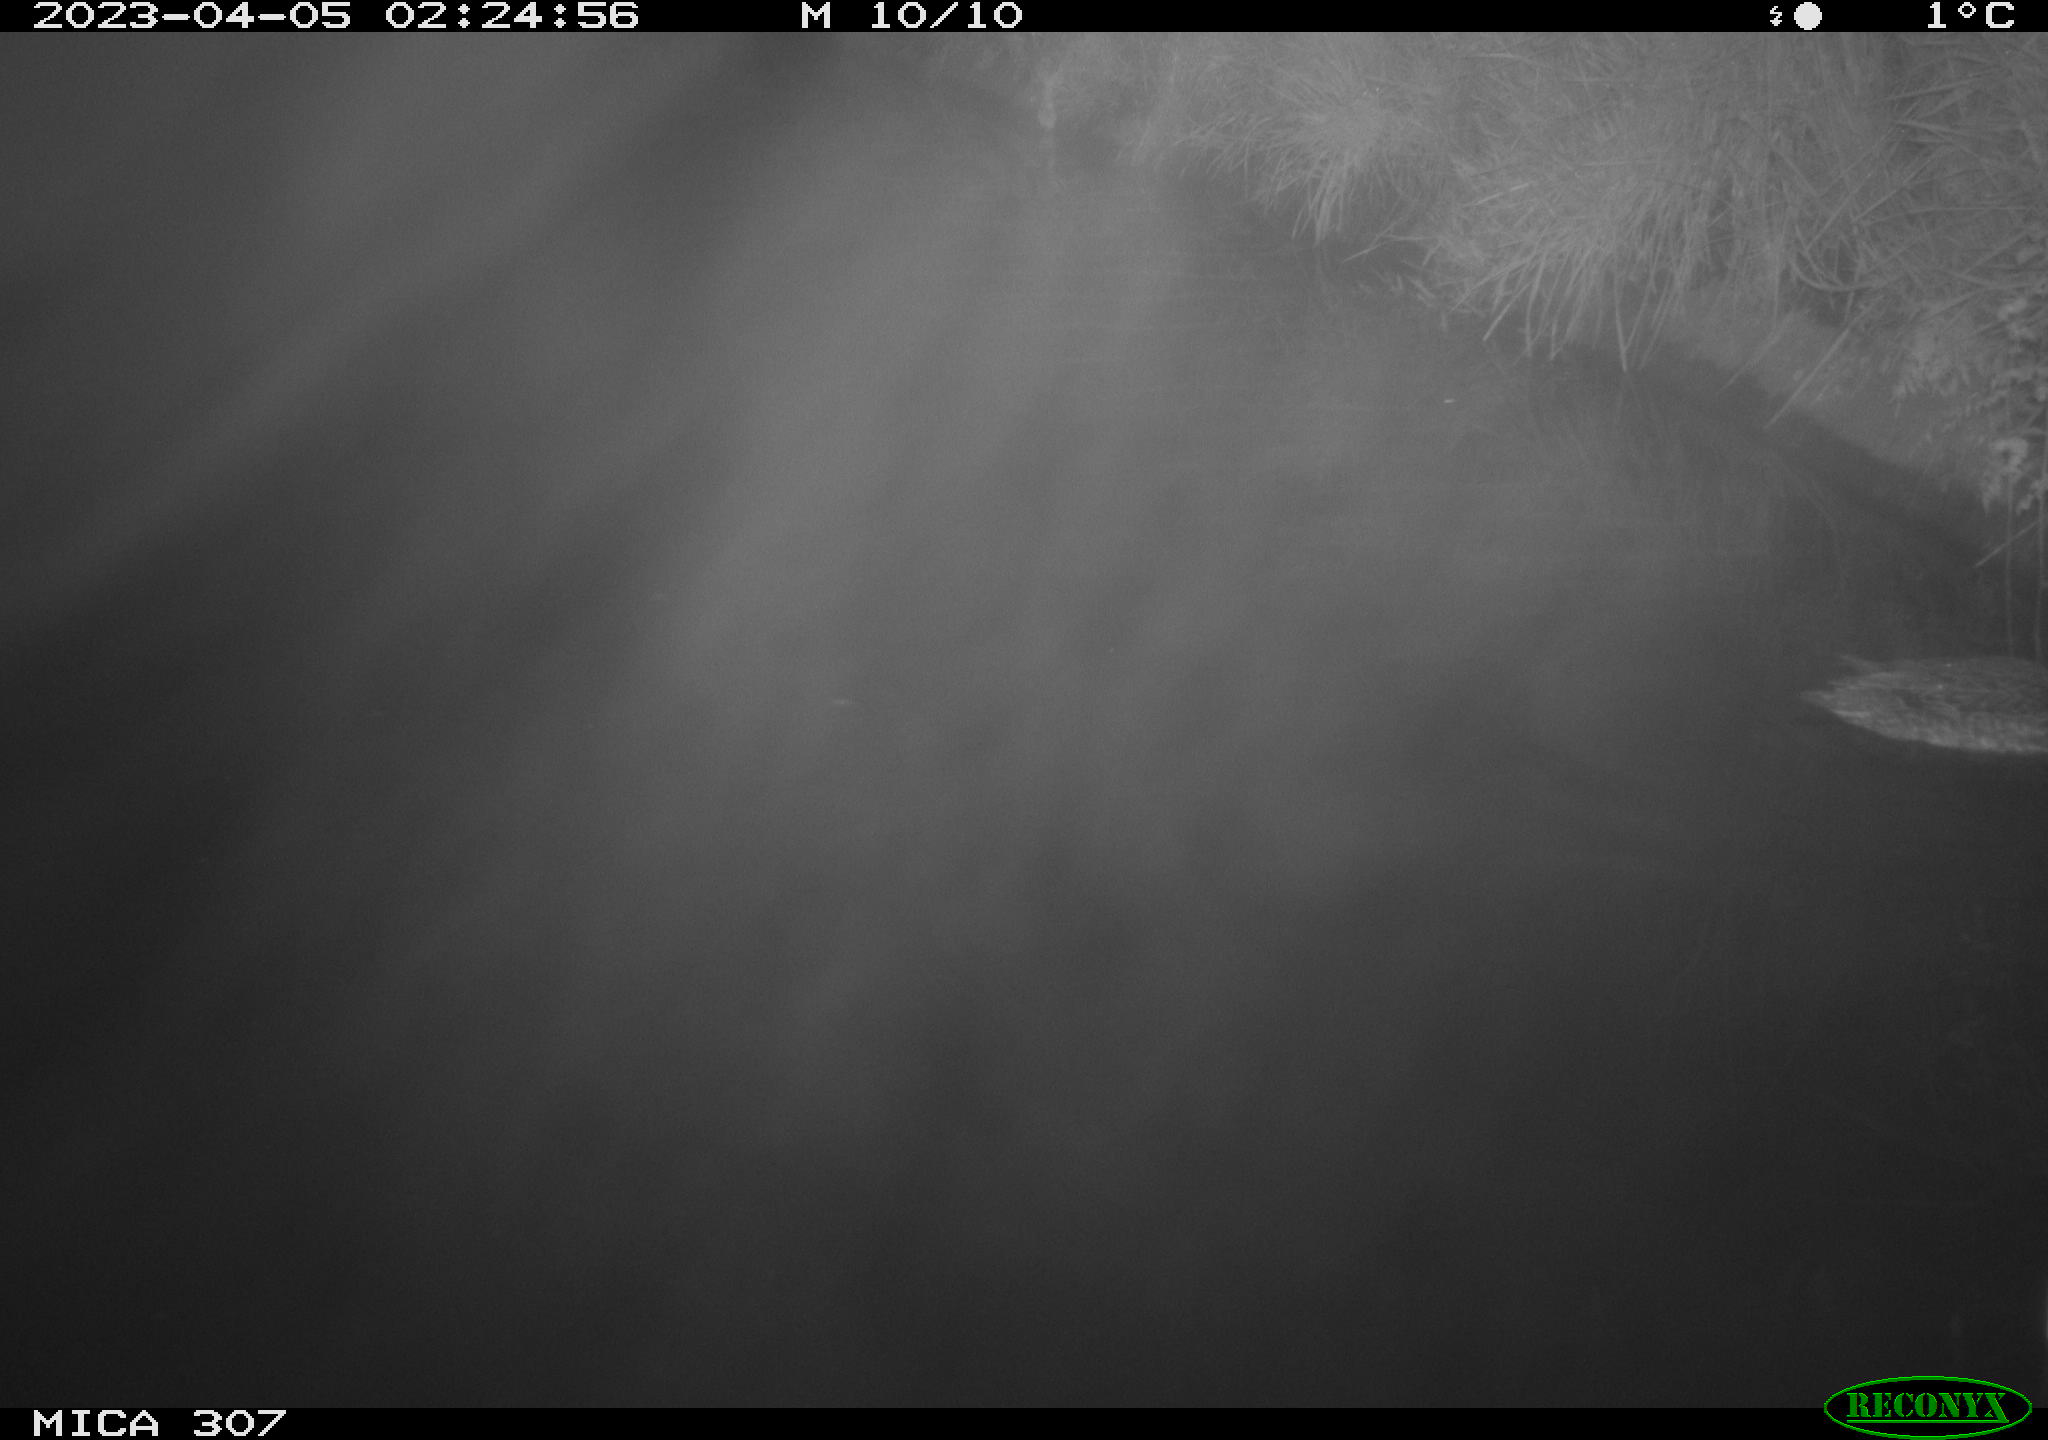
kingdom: Animalia
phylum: Chordata
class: Aves
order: Anseriformes
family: Anatidae
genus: Anas
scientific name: Anas
